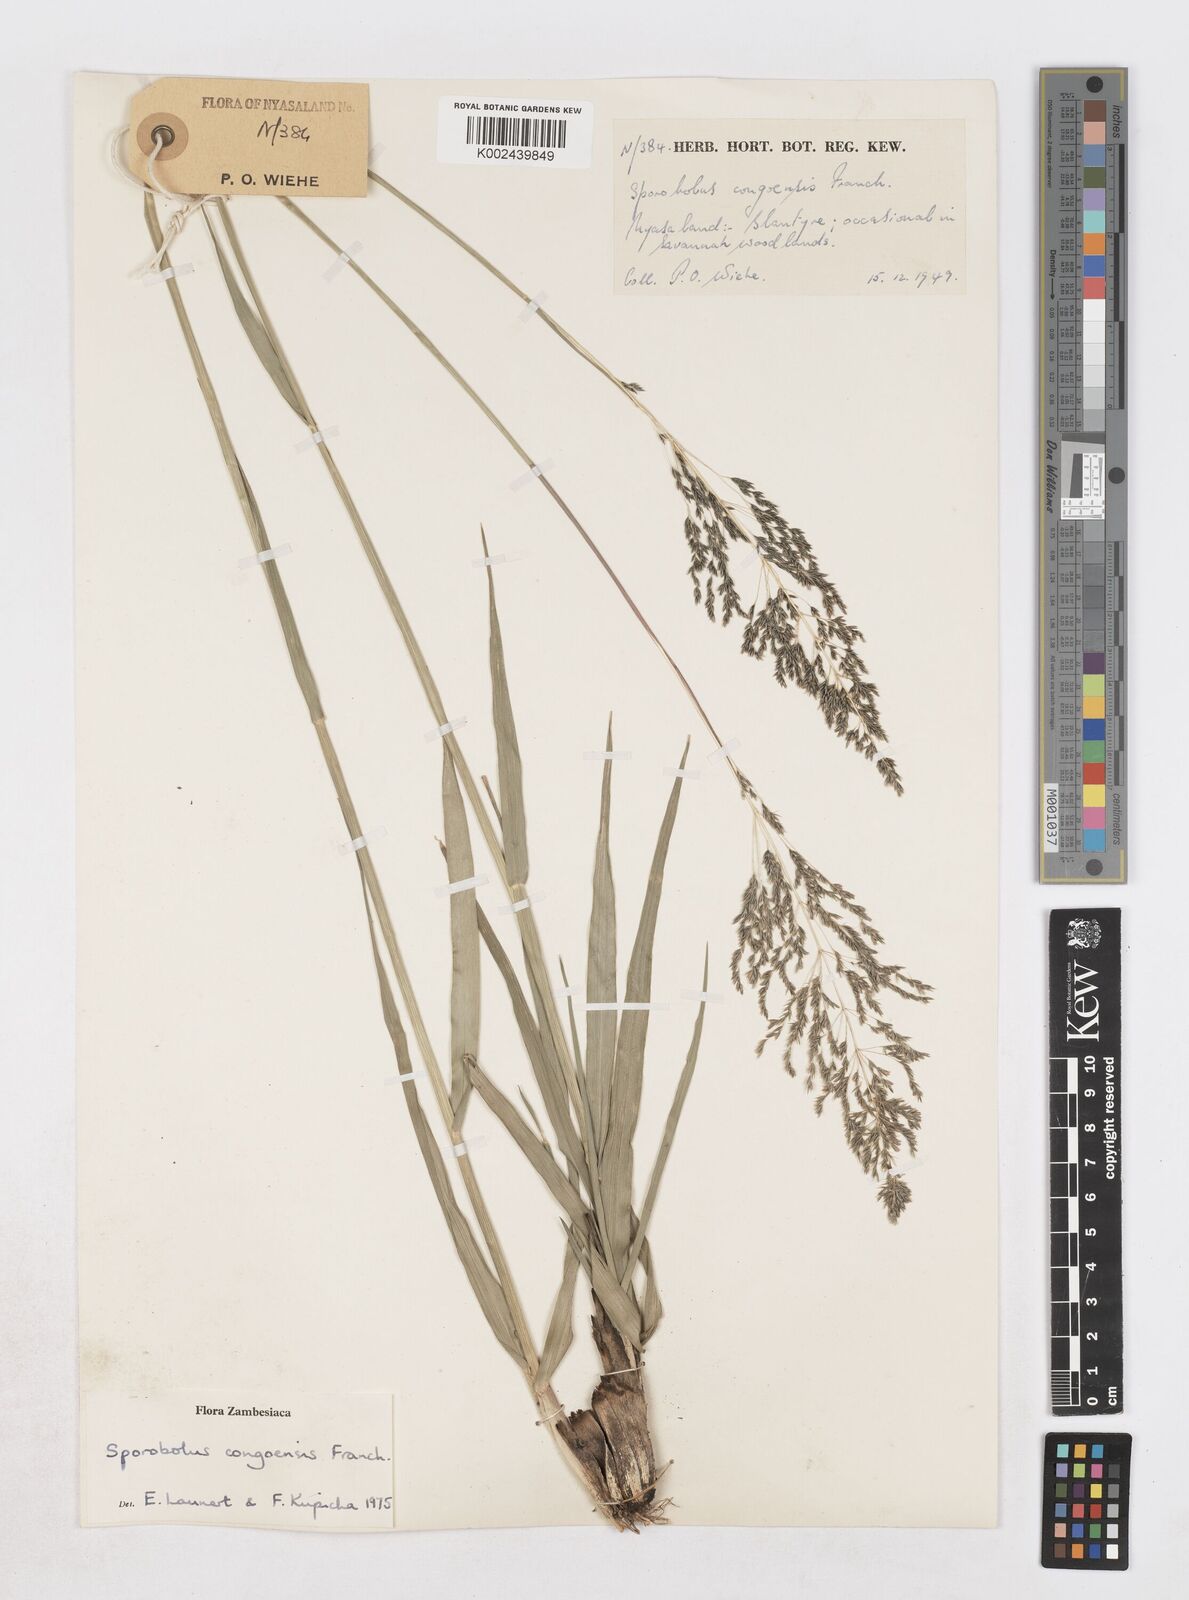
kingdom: Plantae
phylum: Tracheophyta
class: Liliopsida
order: Poales
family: Poaceae
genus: Sporobolus
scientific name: Sporobolus congoensis
